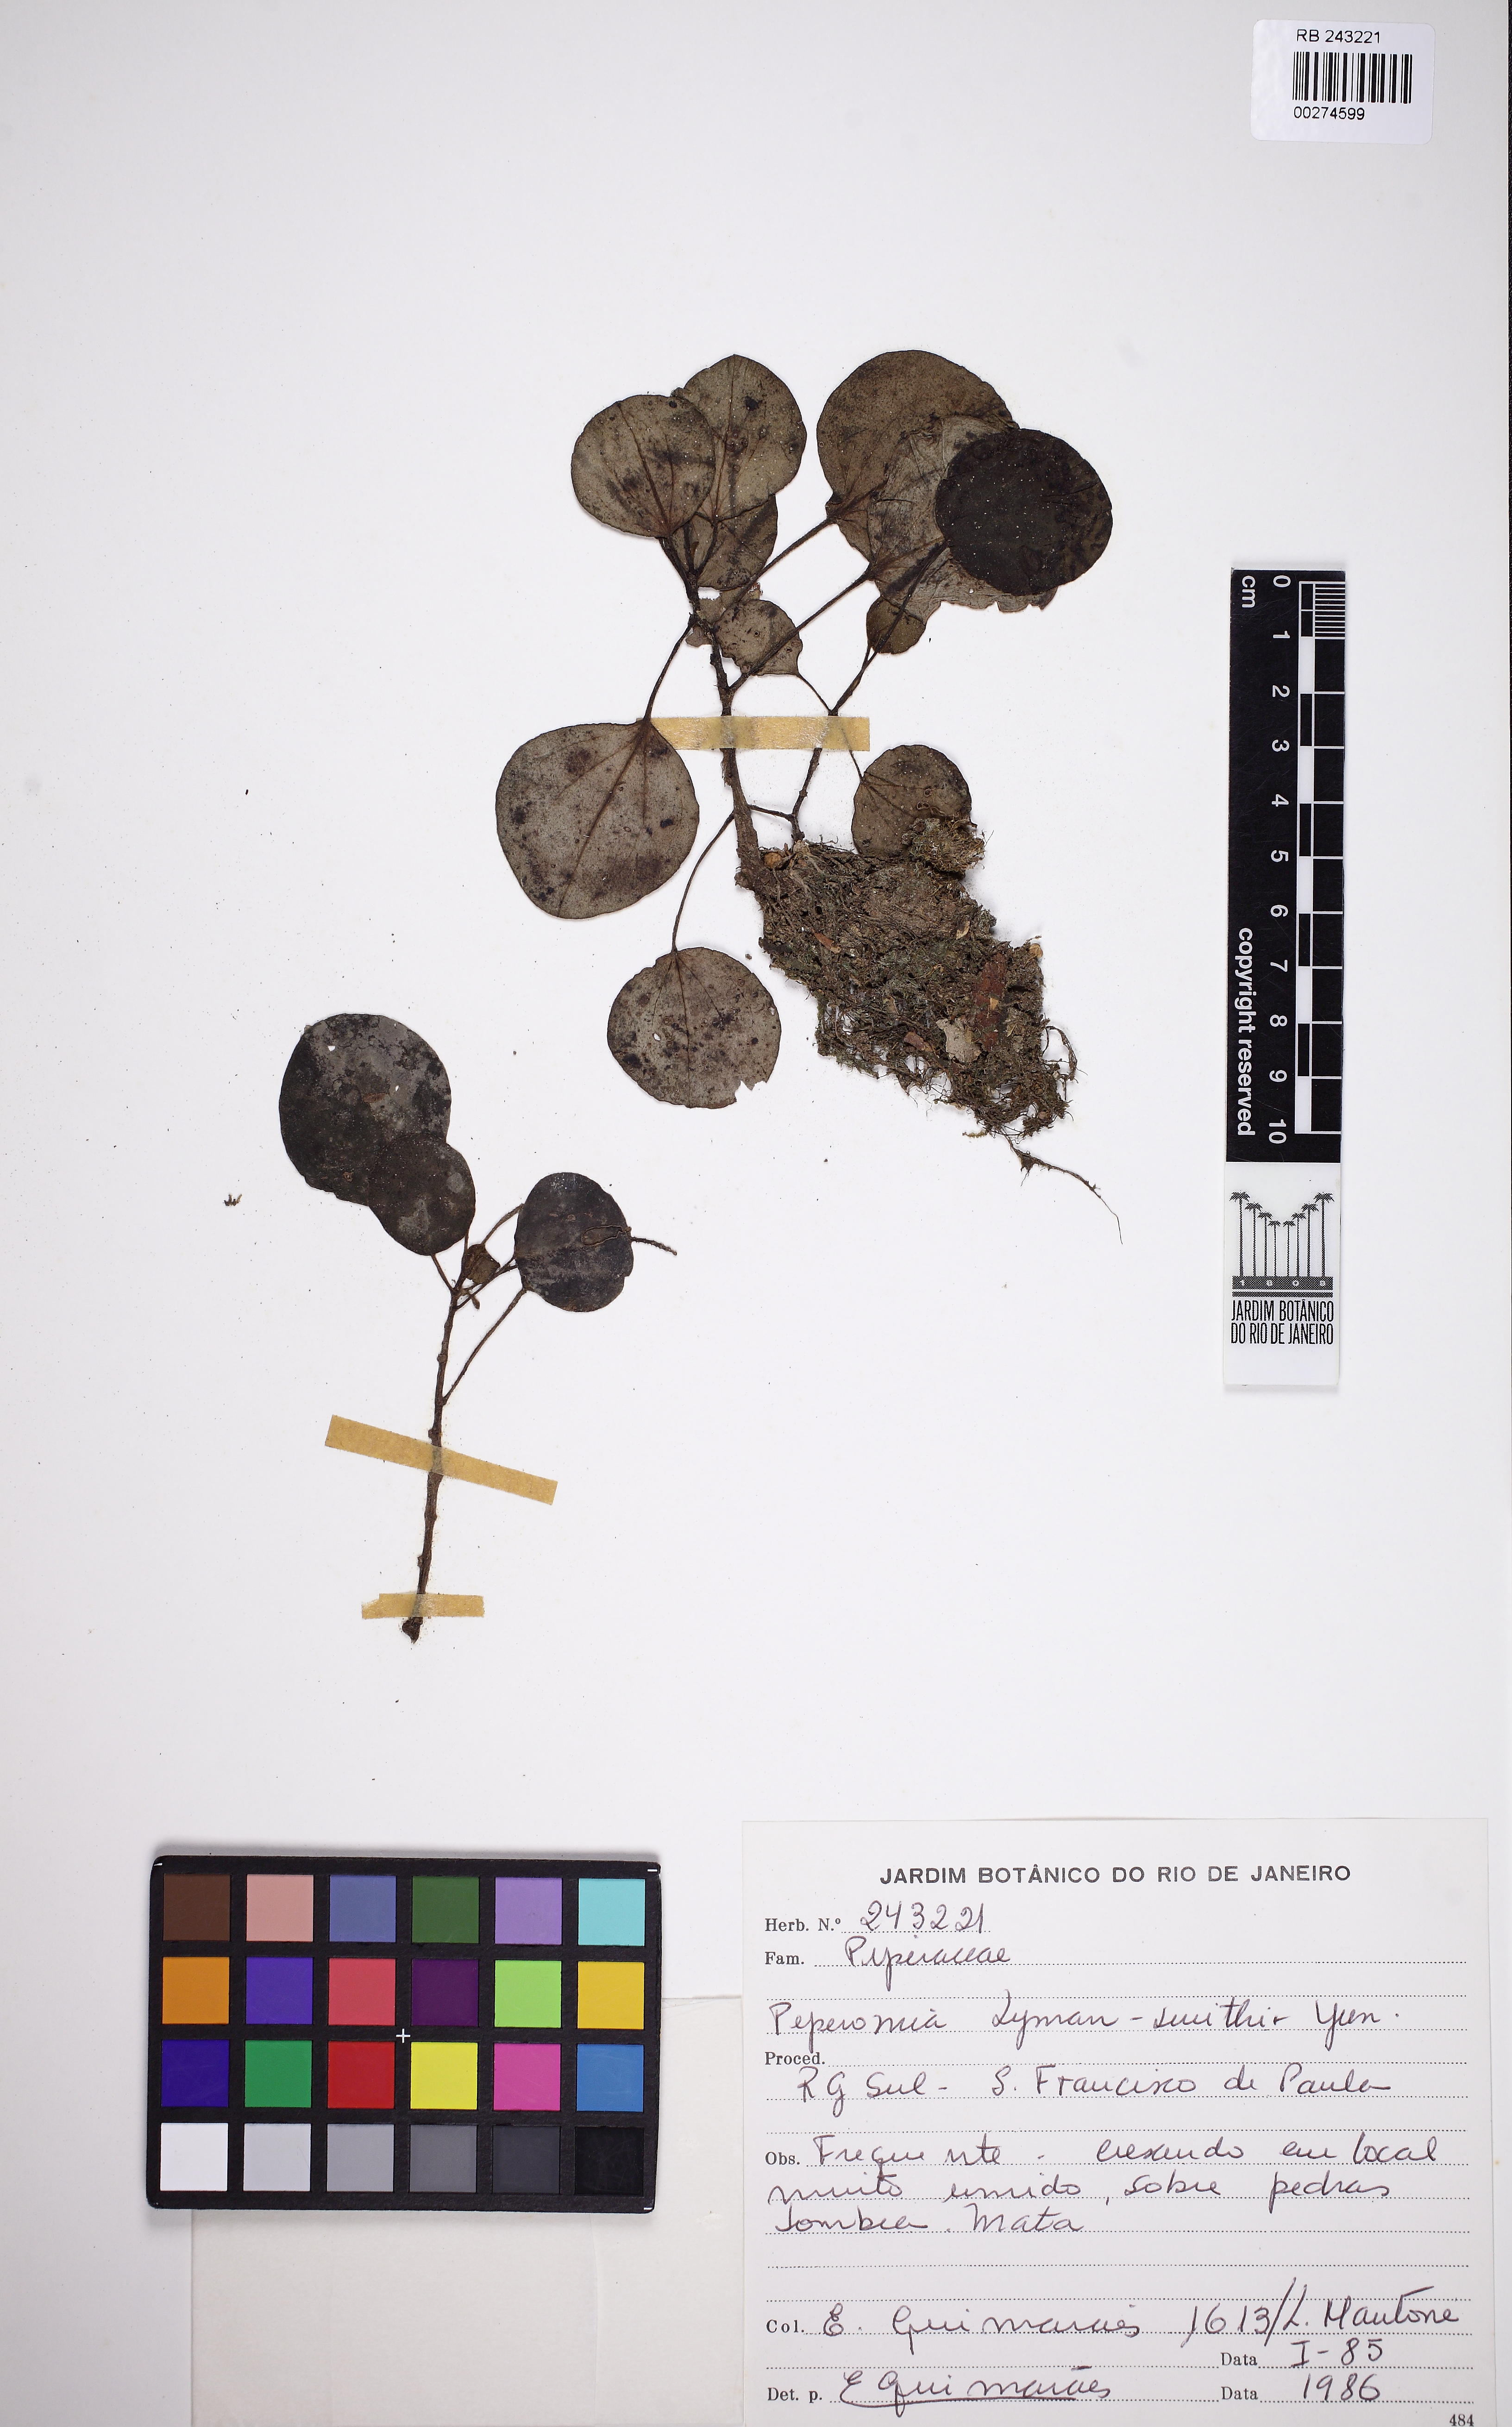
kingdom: Plantae
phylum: Tracheophyta
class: Magnoliopsida
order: Piperales
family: Piperaceae
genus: Peperomia
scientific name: Peperomia lyman-smithii
